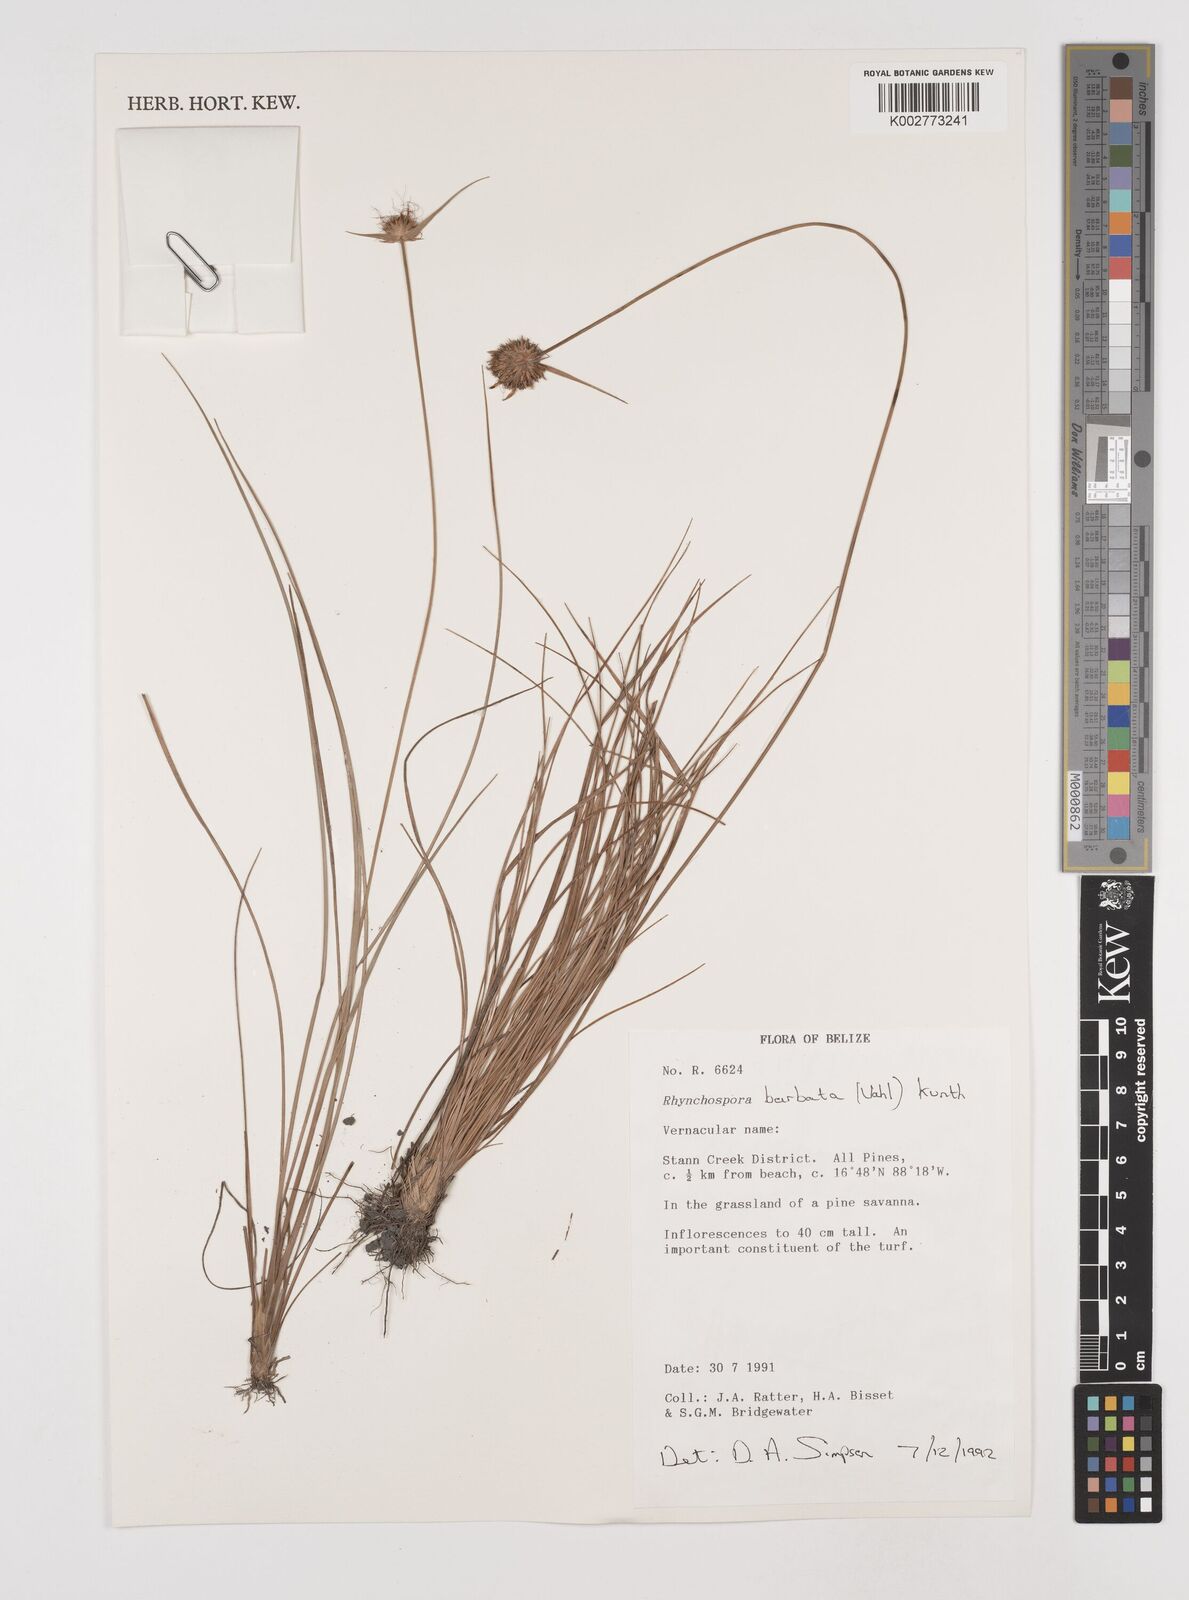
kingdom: Plantae
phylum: Tracheophyta
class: Liliopsida
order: Poales
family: Cyperaceae
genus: Rhynchospora
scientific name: Rhynchospora barbata
